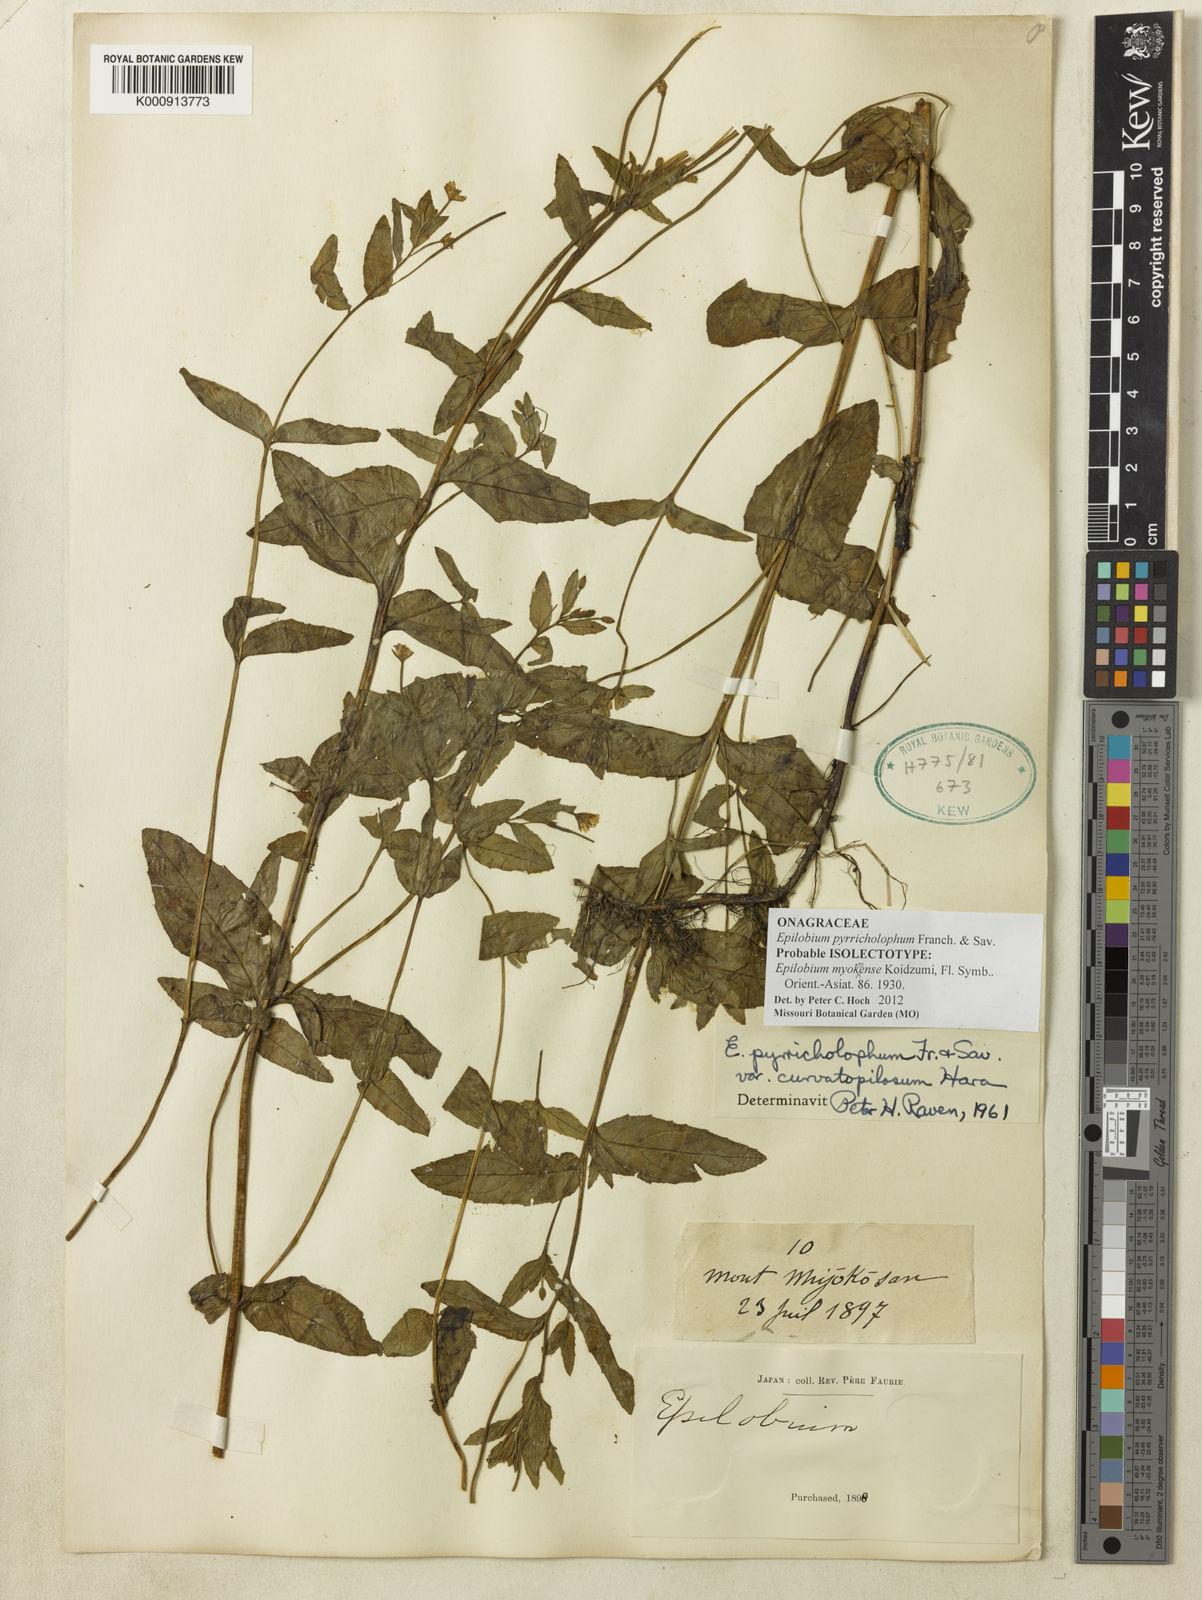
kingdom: Plantae
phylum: Tracheophyta
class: Magnoliopsida
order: Myrtales
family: Onagraceae
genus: Epilobium
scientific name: Epilobium pyrricholophum
